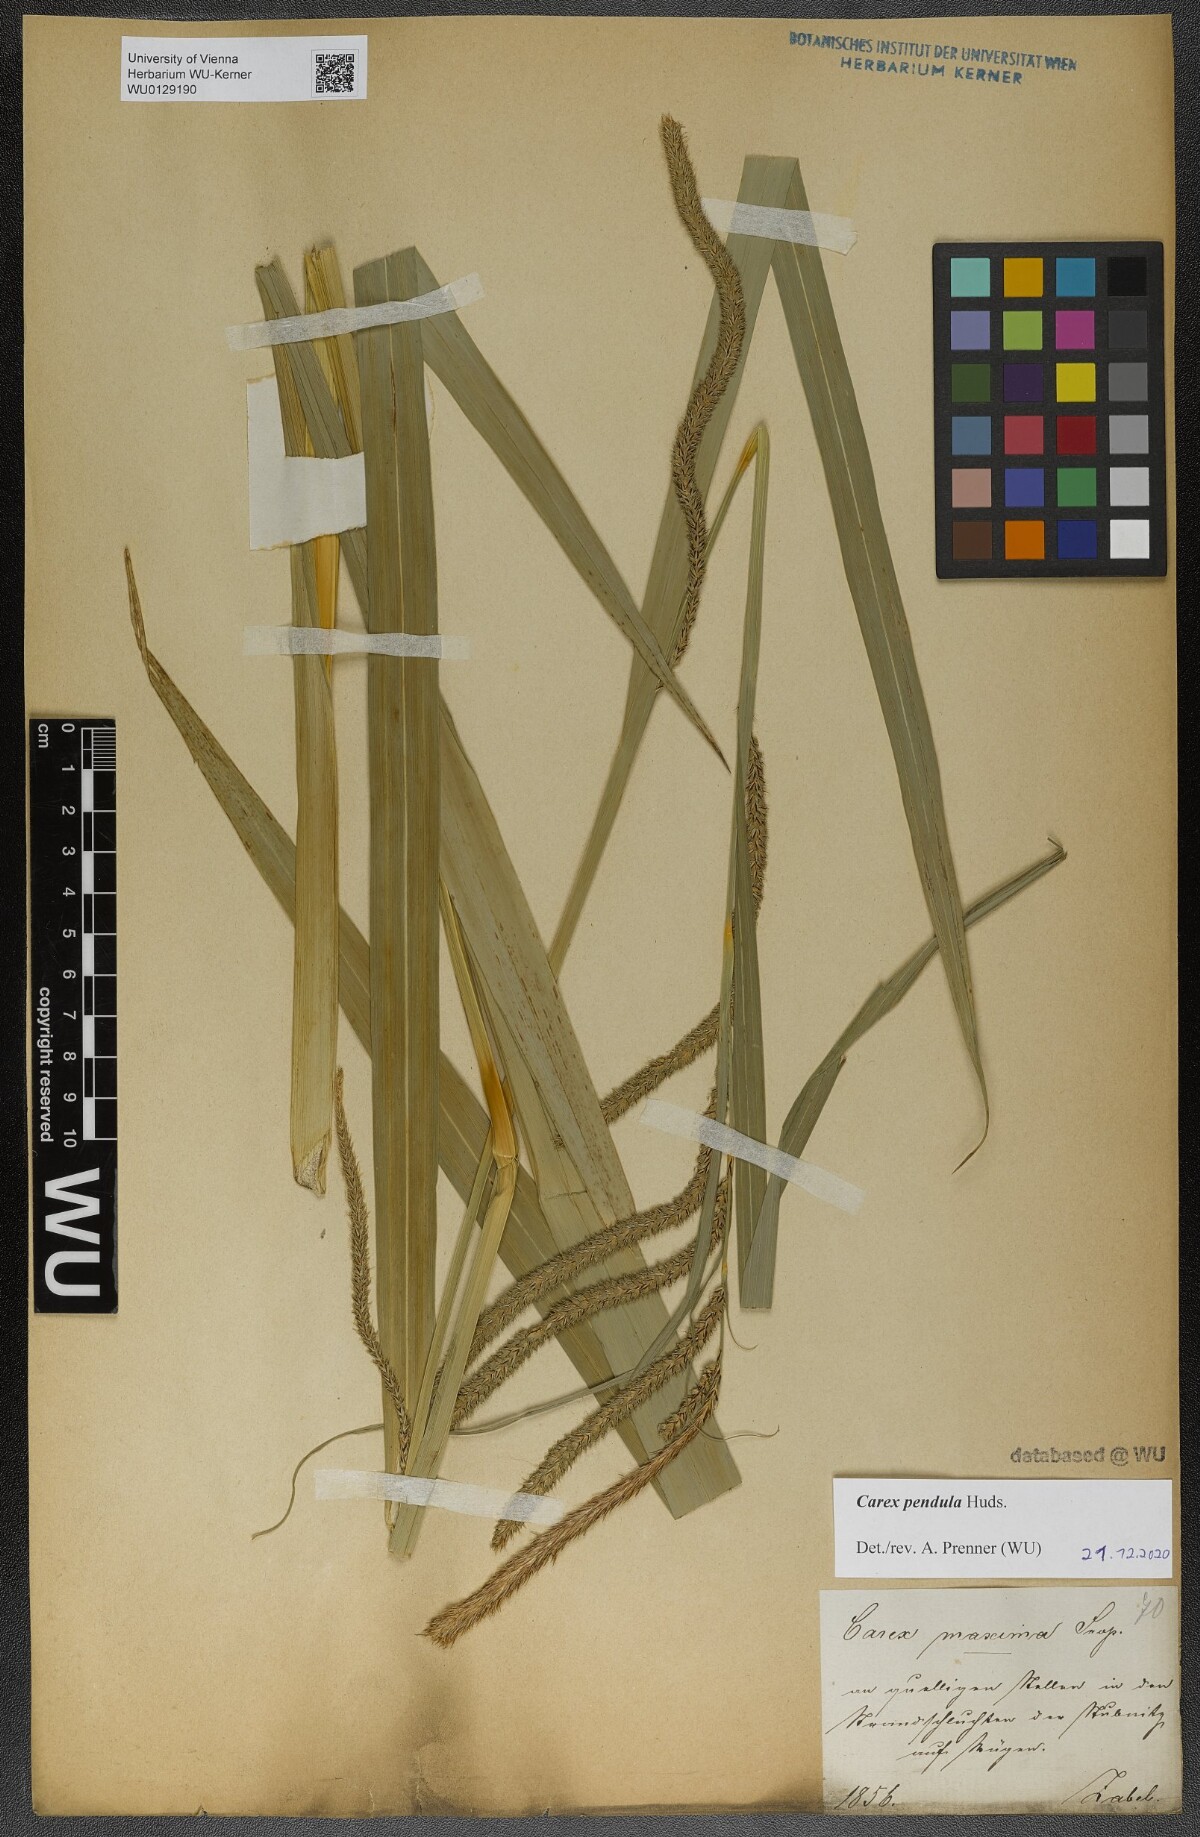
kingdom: Plantae
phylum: Tracheophyta
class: Liliopsida
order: Poales
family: Cyperaceae
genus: Carex
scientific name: Carex pendula
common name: Pendulous sedge
